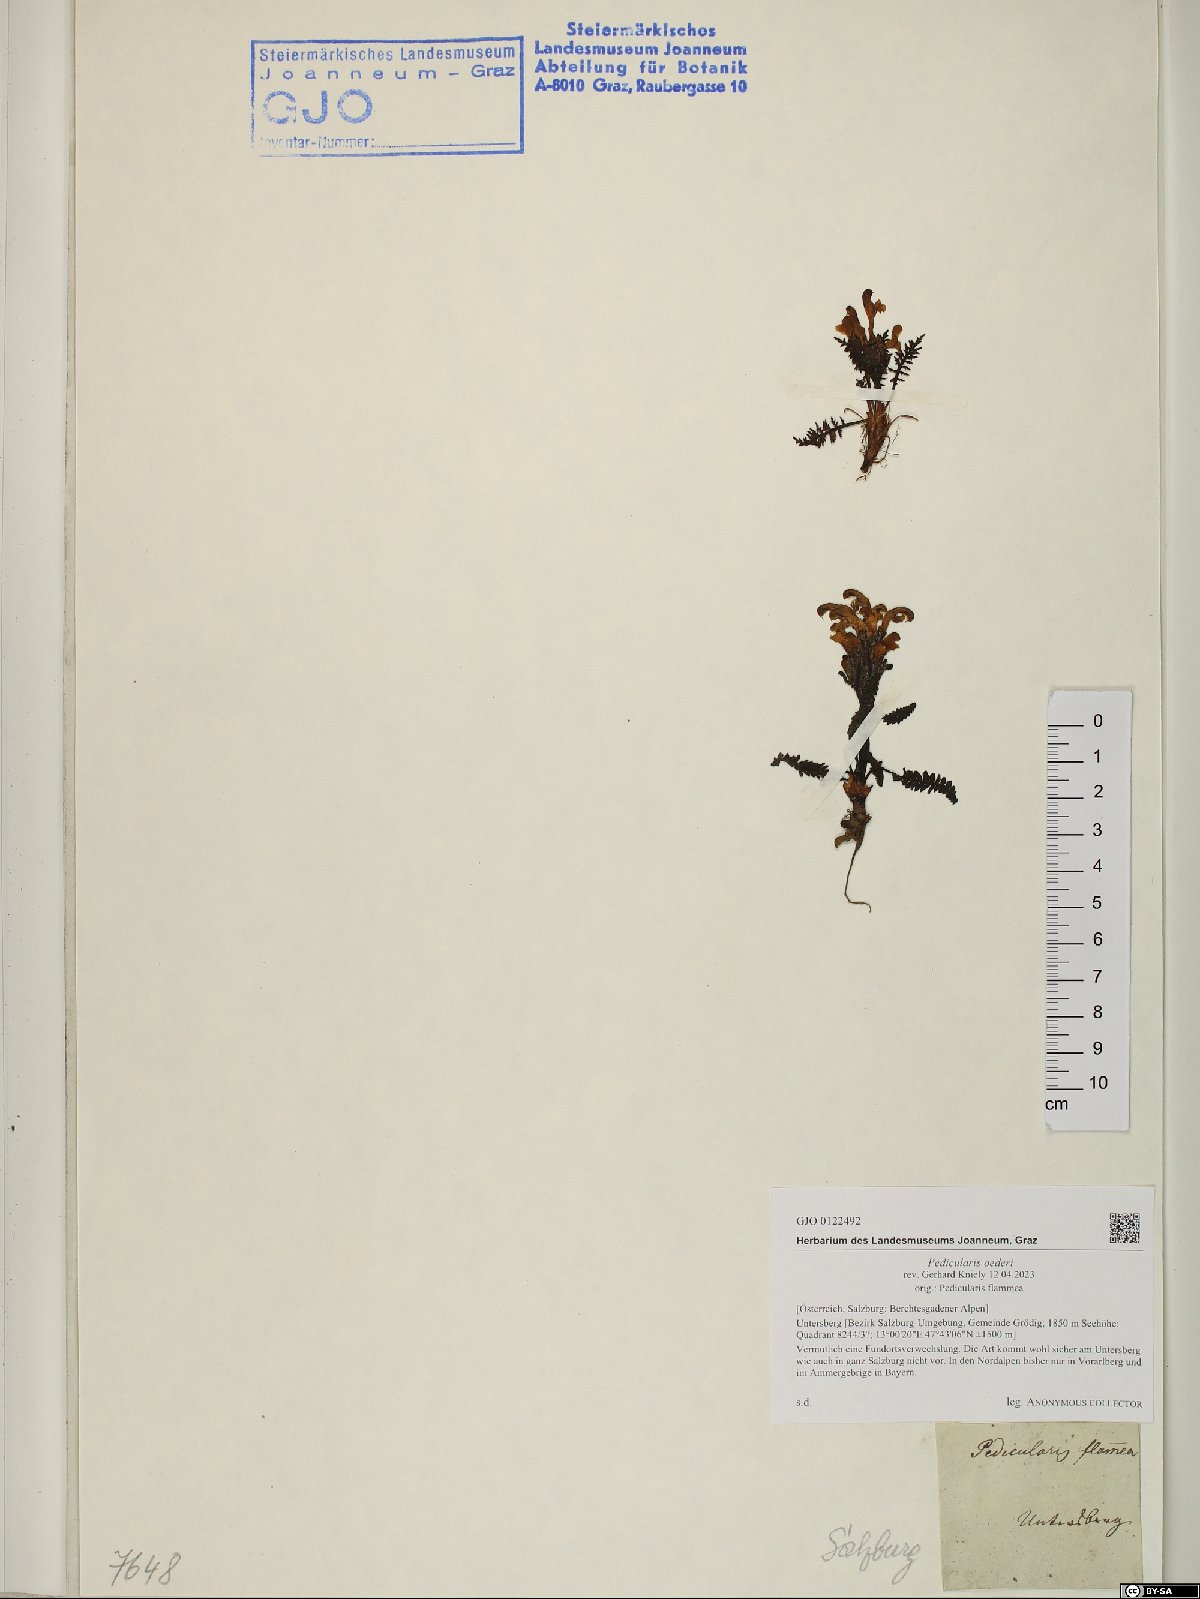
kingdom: Plantae
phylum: Tracheophyta
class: Magnoliopsida
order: Lamiales
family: Orobanchaceae
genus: Pedicularis
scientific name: Pedicularis oederi
